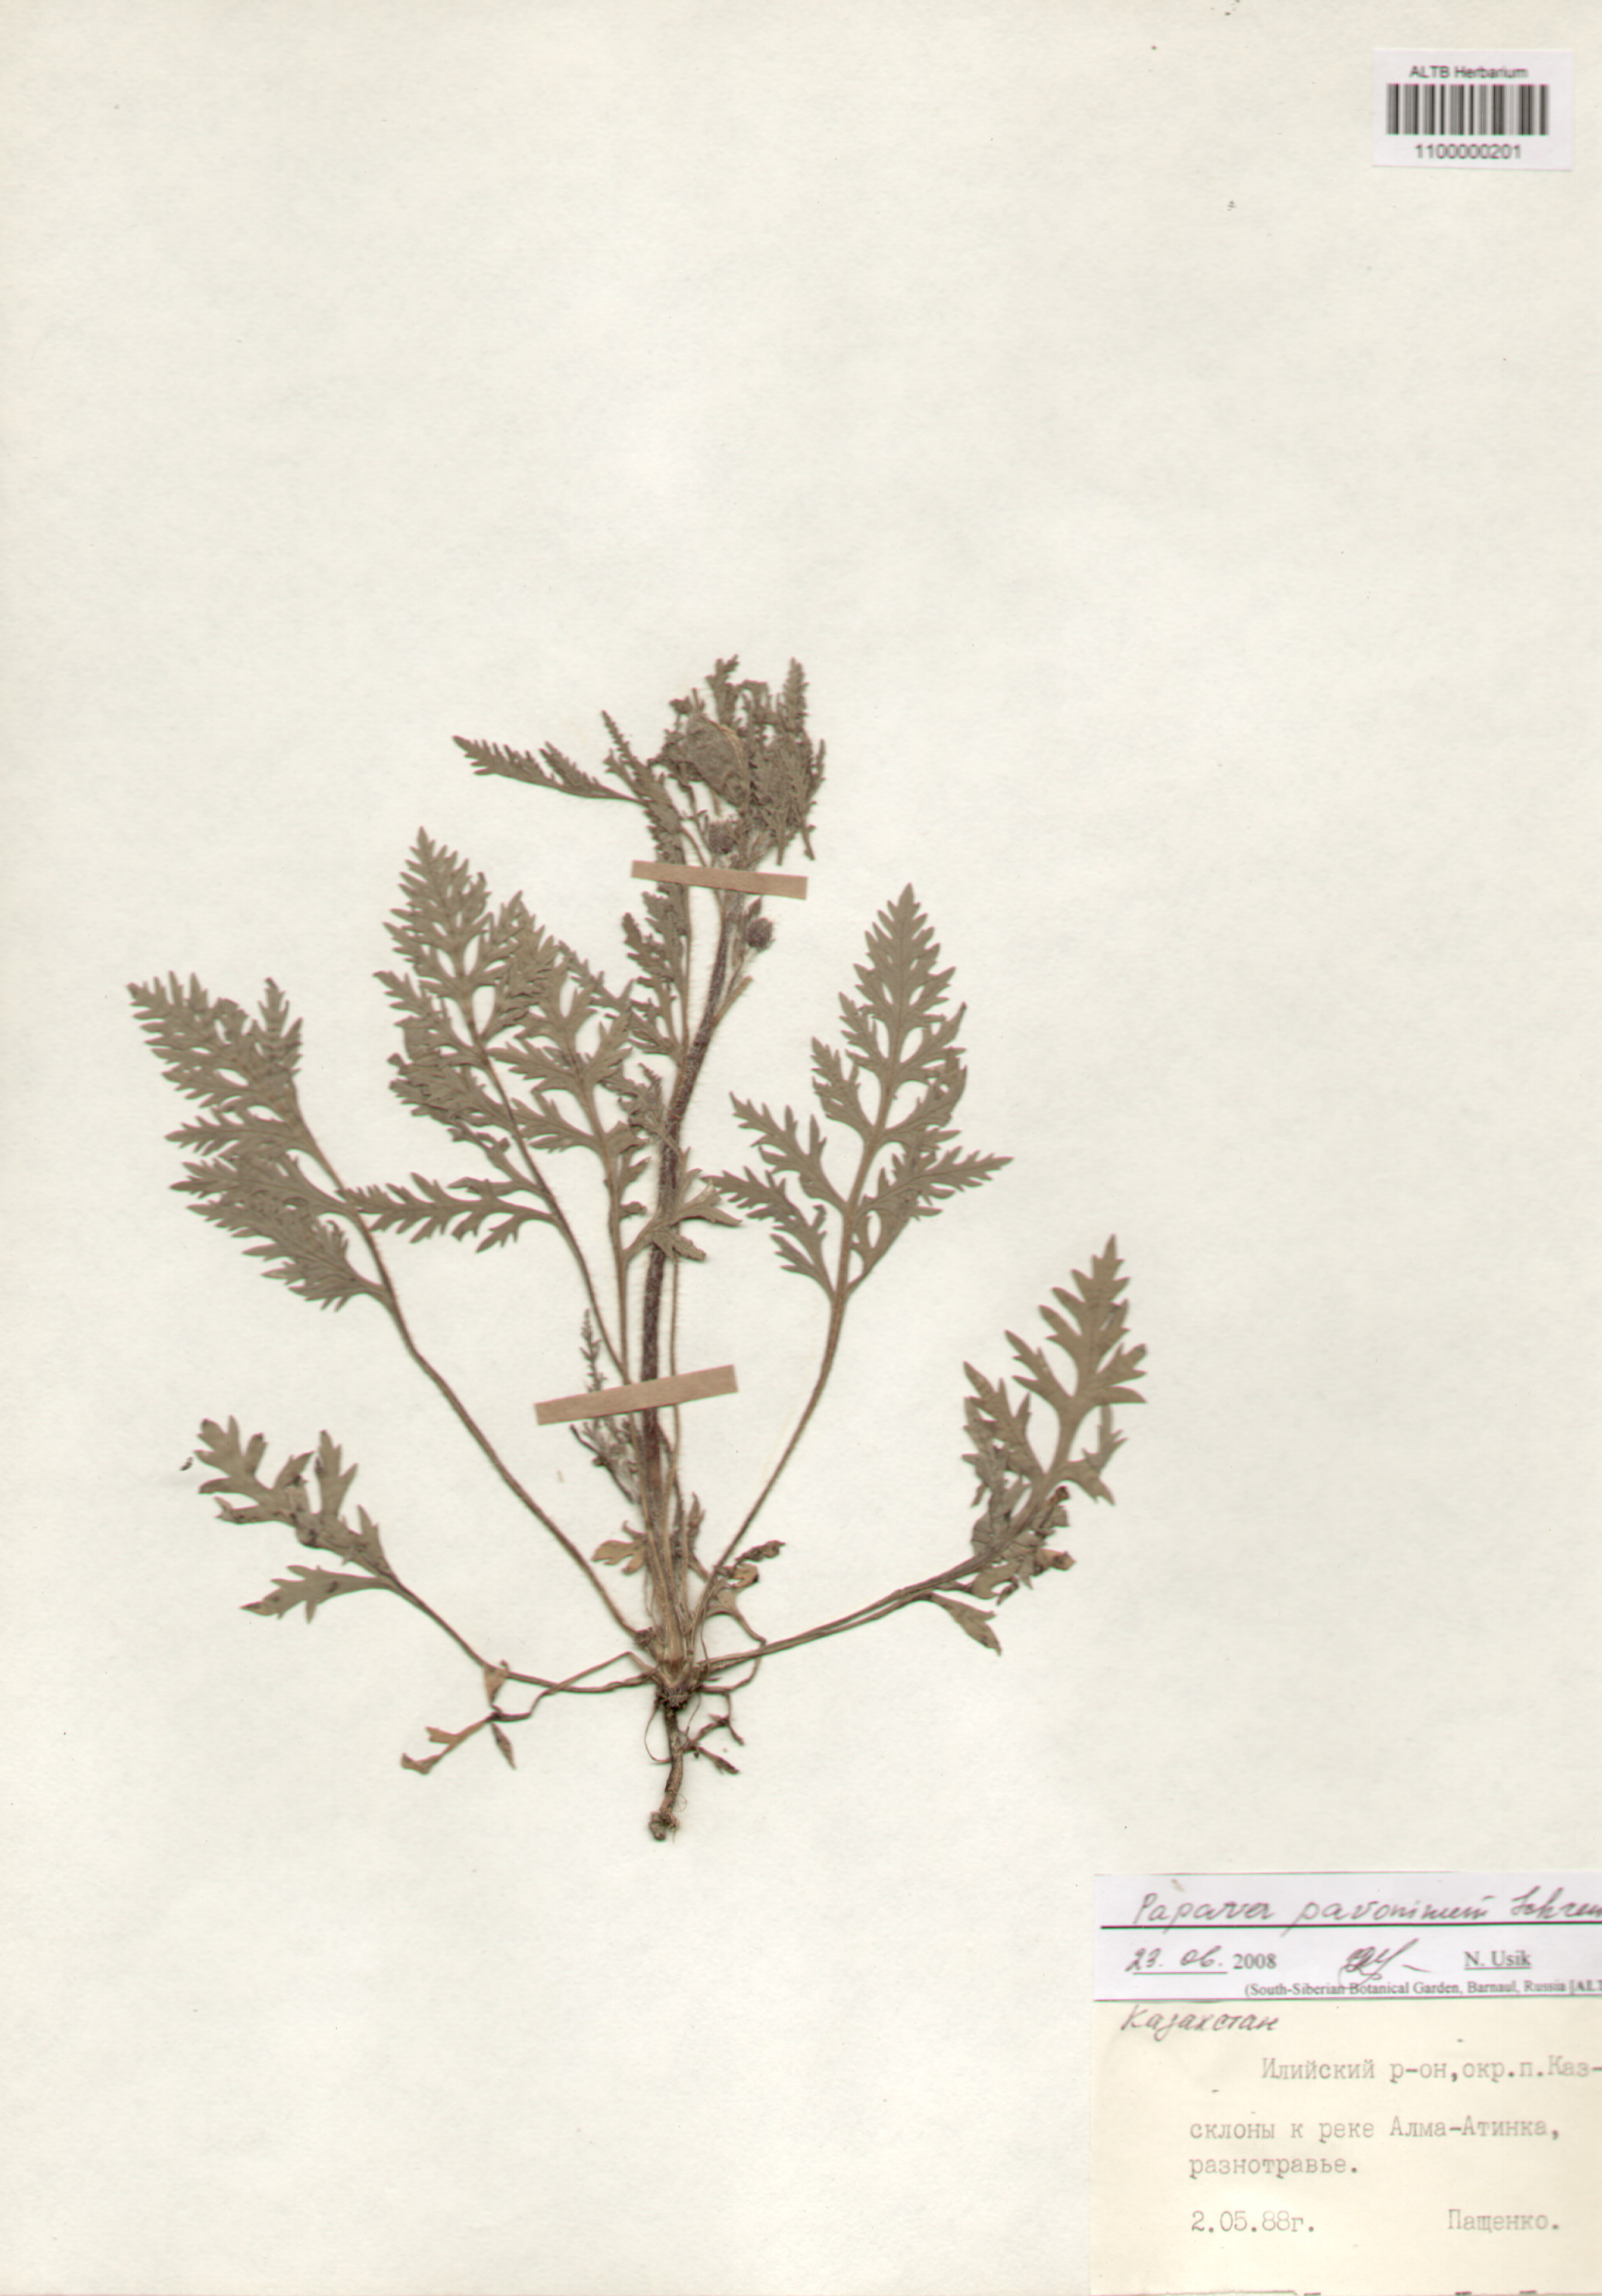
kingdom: Plantae
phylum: Tracheophyta
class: Magnoliopsida
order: Ranunculales
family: Papaveraceae
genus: Papaver
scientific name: Papaver pavoninum
